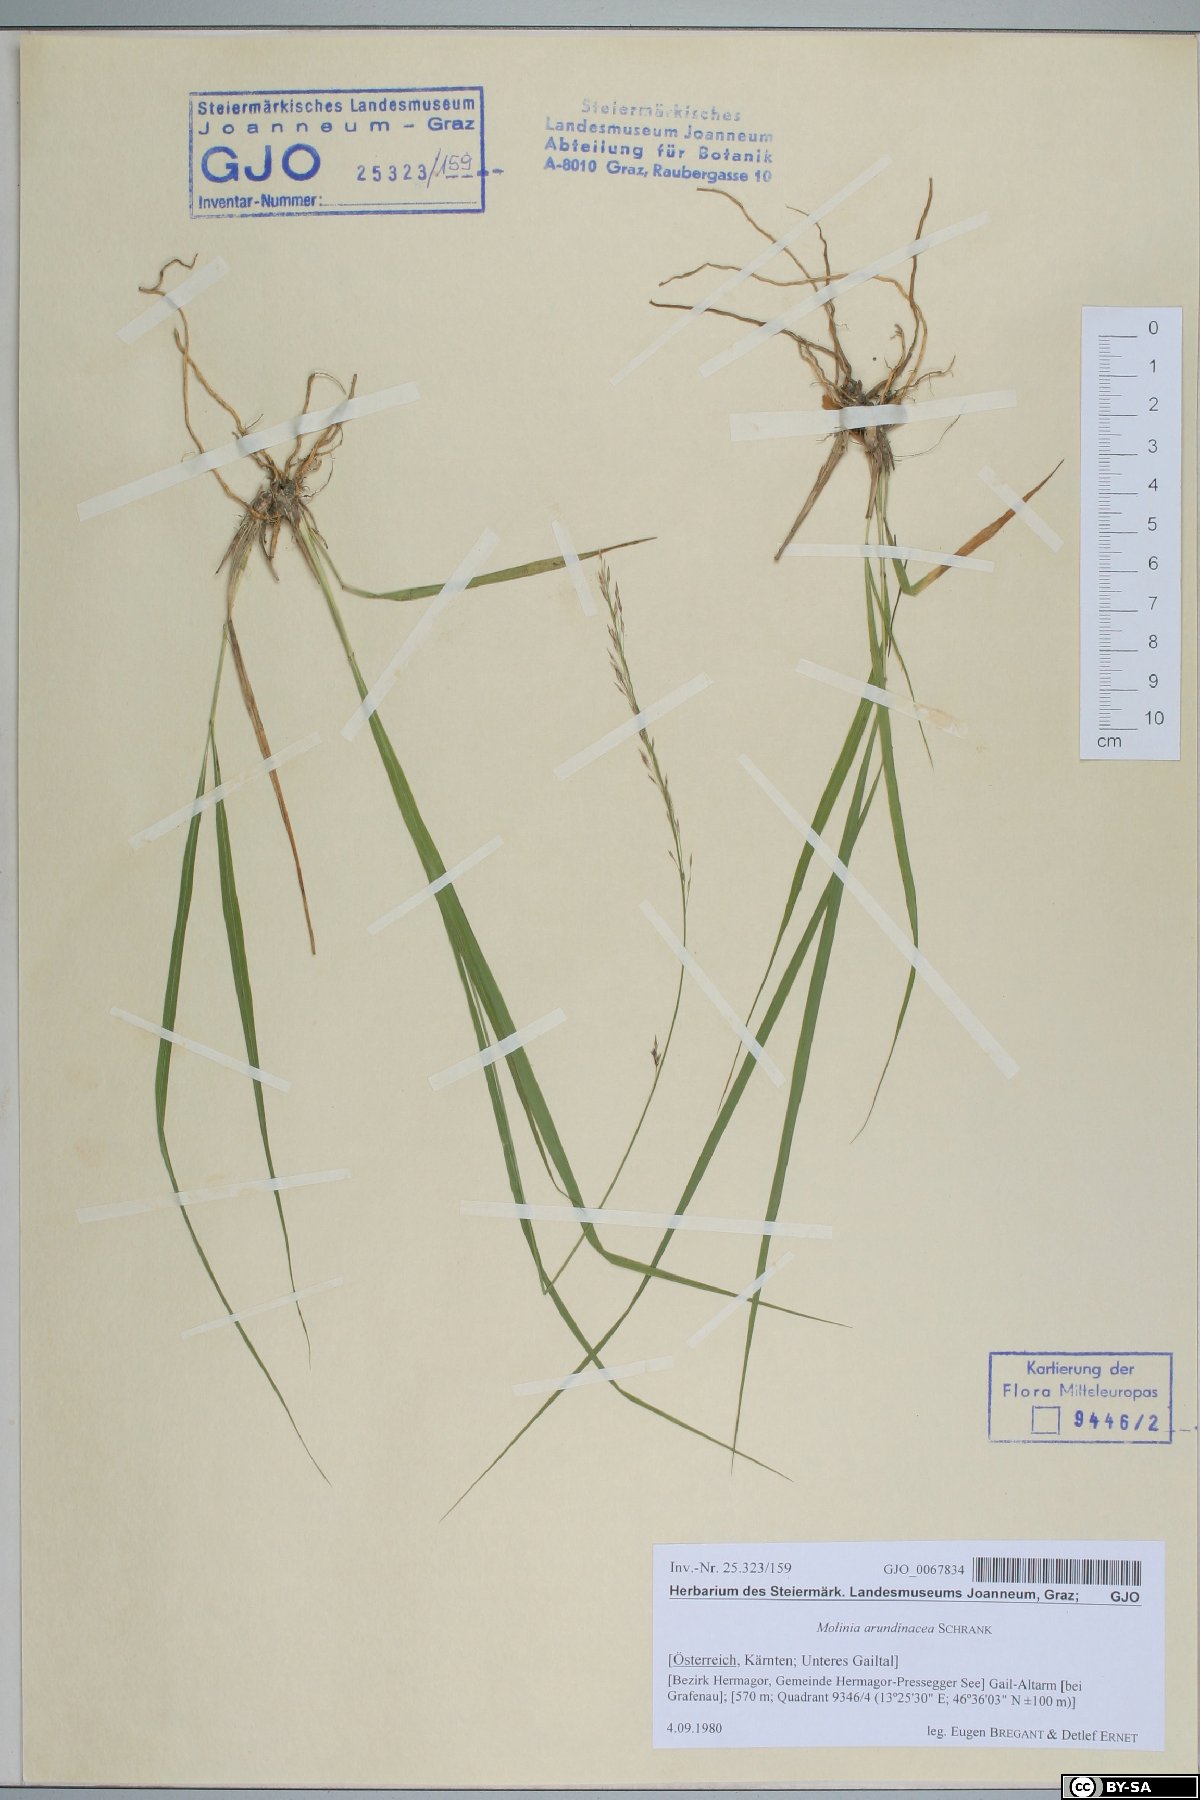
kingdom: Plantae
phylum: Tracheophyta
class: Liliopsida
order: Poales
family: Poaceae
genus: Molinia
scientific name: Molinia arundinacea
